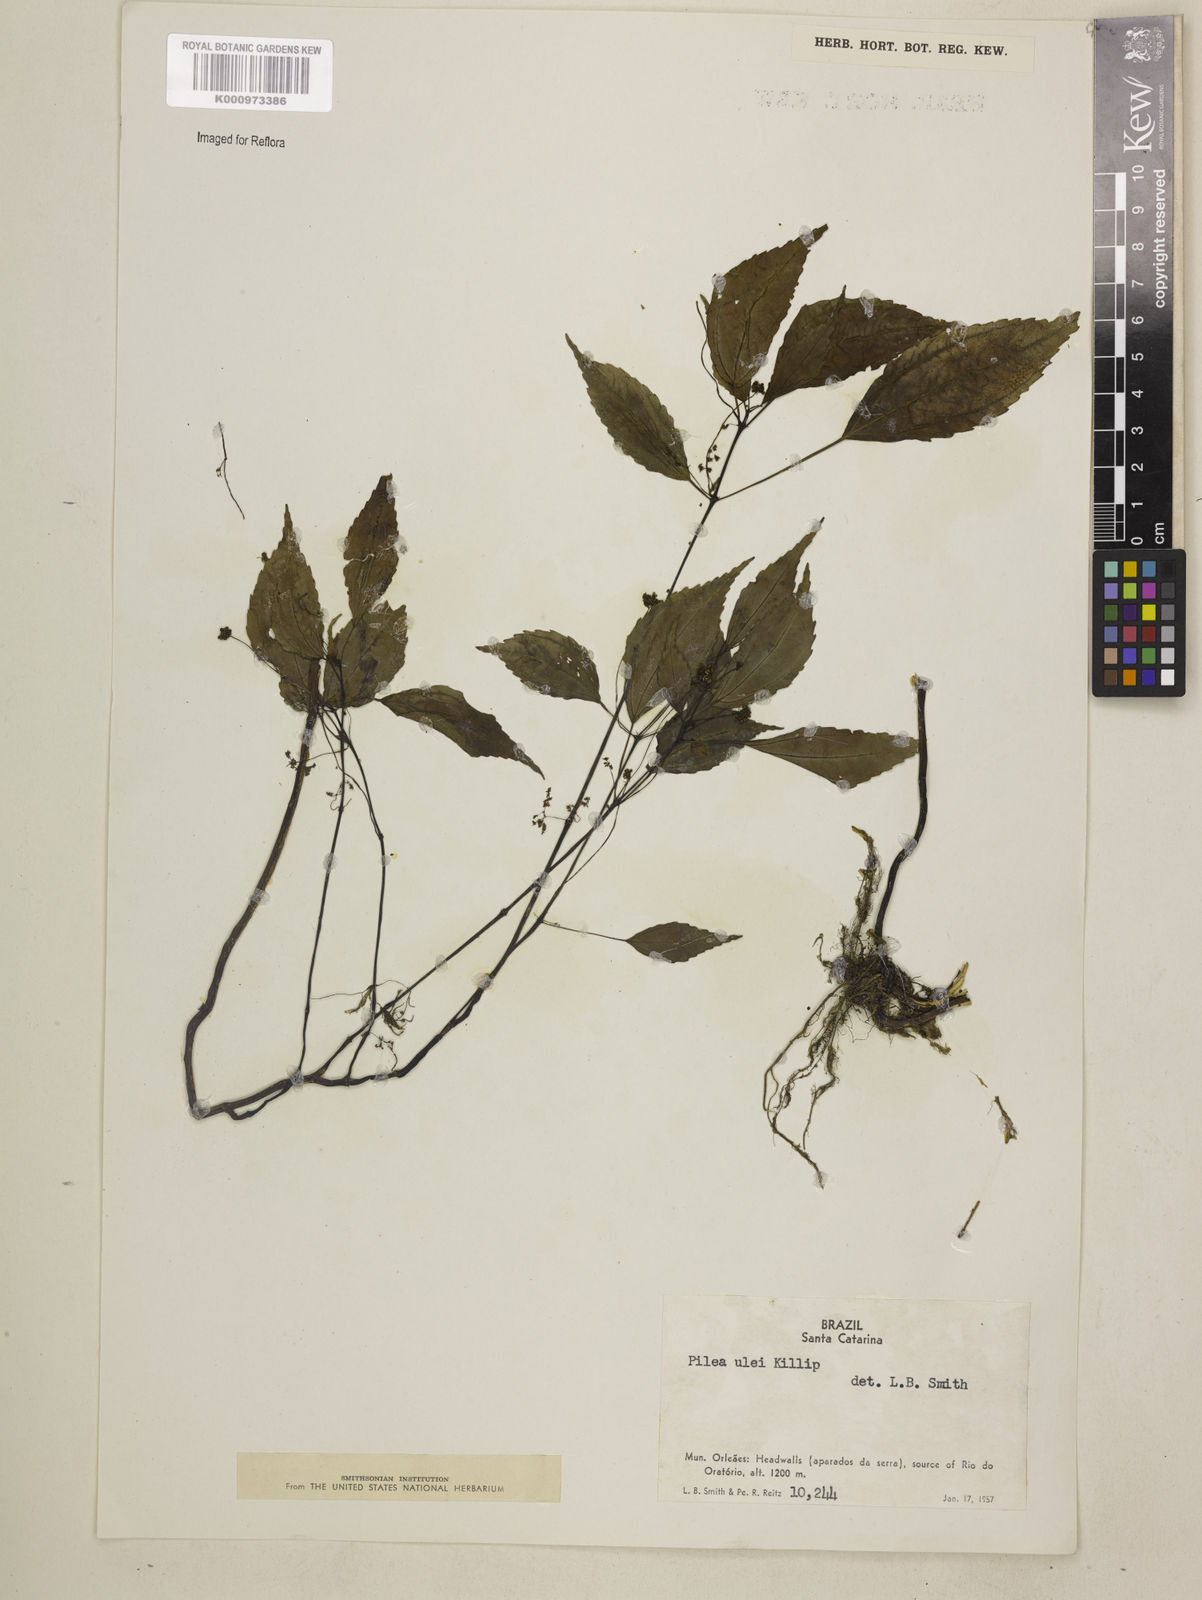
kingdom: Plantae
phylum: Tracheophyta
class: Magnoliopsida
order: Rosales
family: Urticaceae
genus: Pilea
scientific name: Pilea ulei
